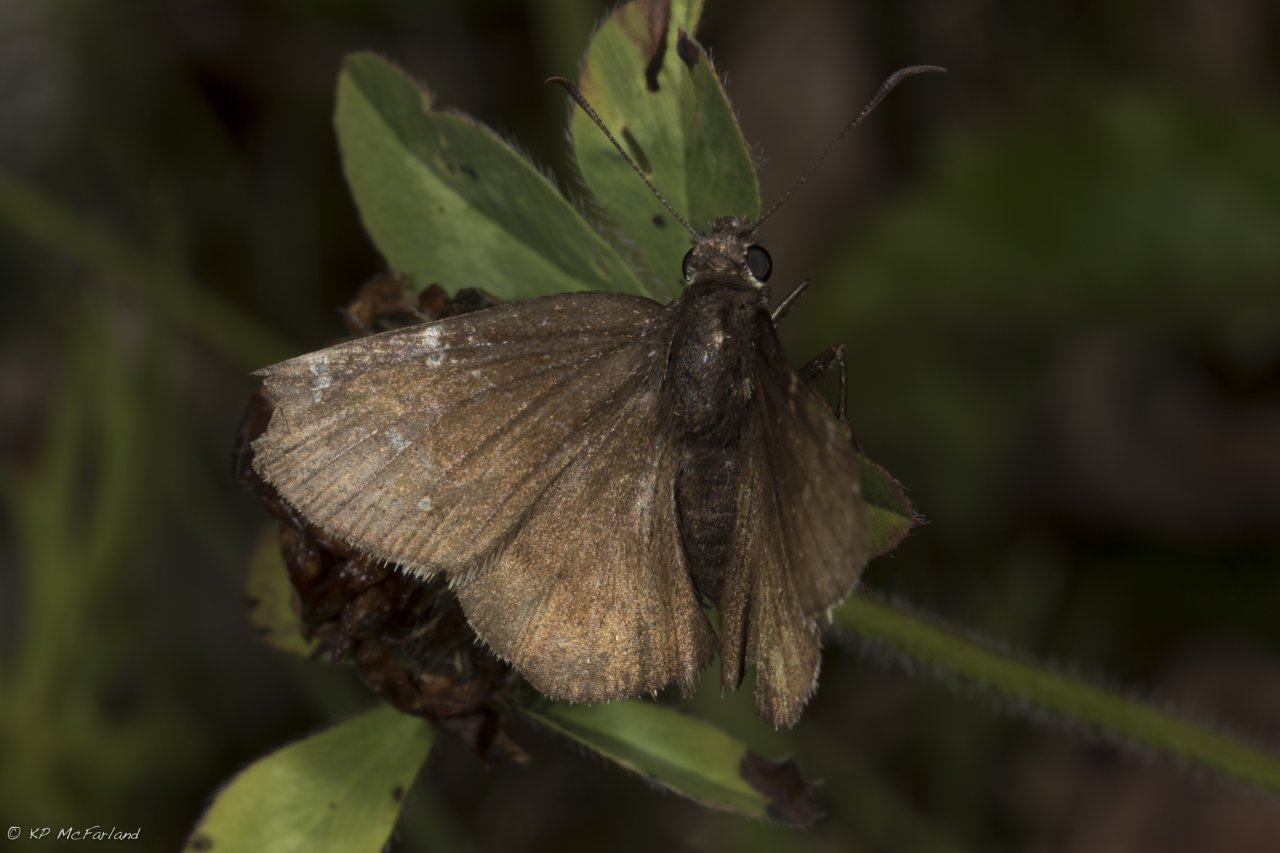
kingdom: Animalia
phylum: Arthropoda
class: Insecta
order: Lepidoptera
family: Hesperiidae
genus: Autochton
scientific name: Autochton
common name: Northern Cloudywing
